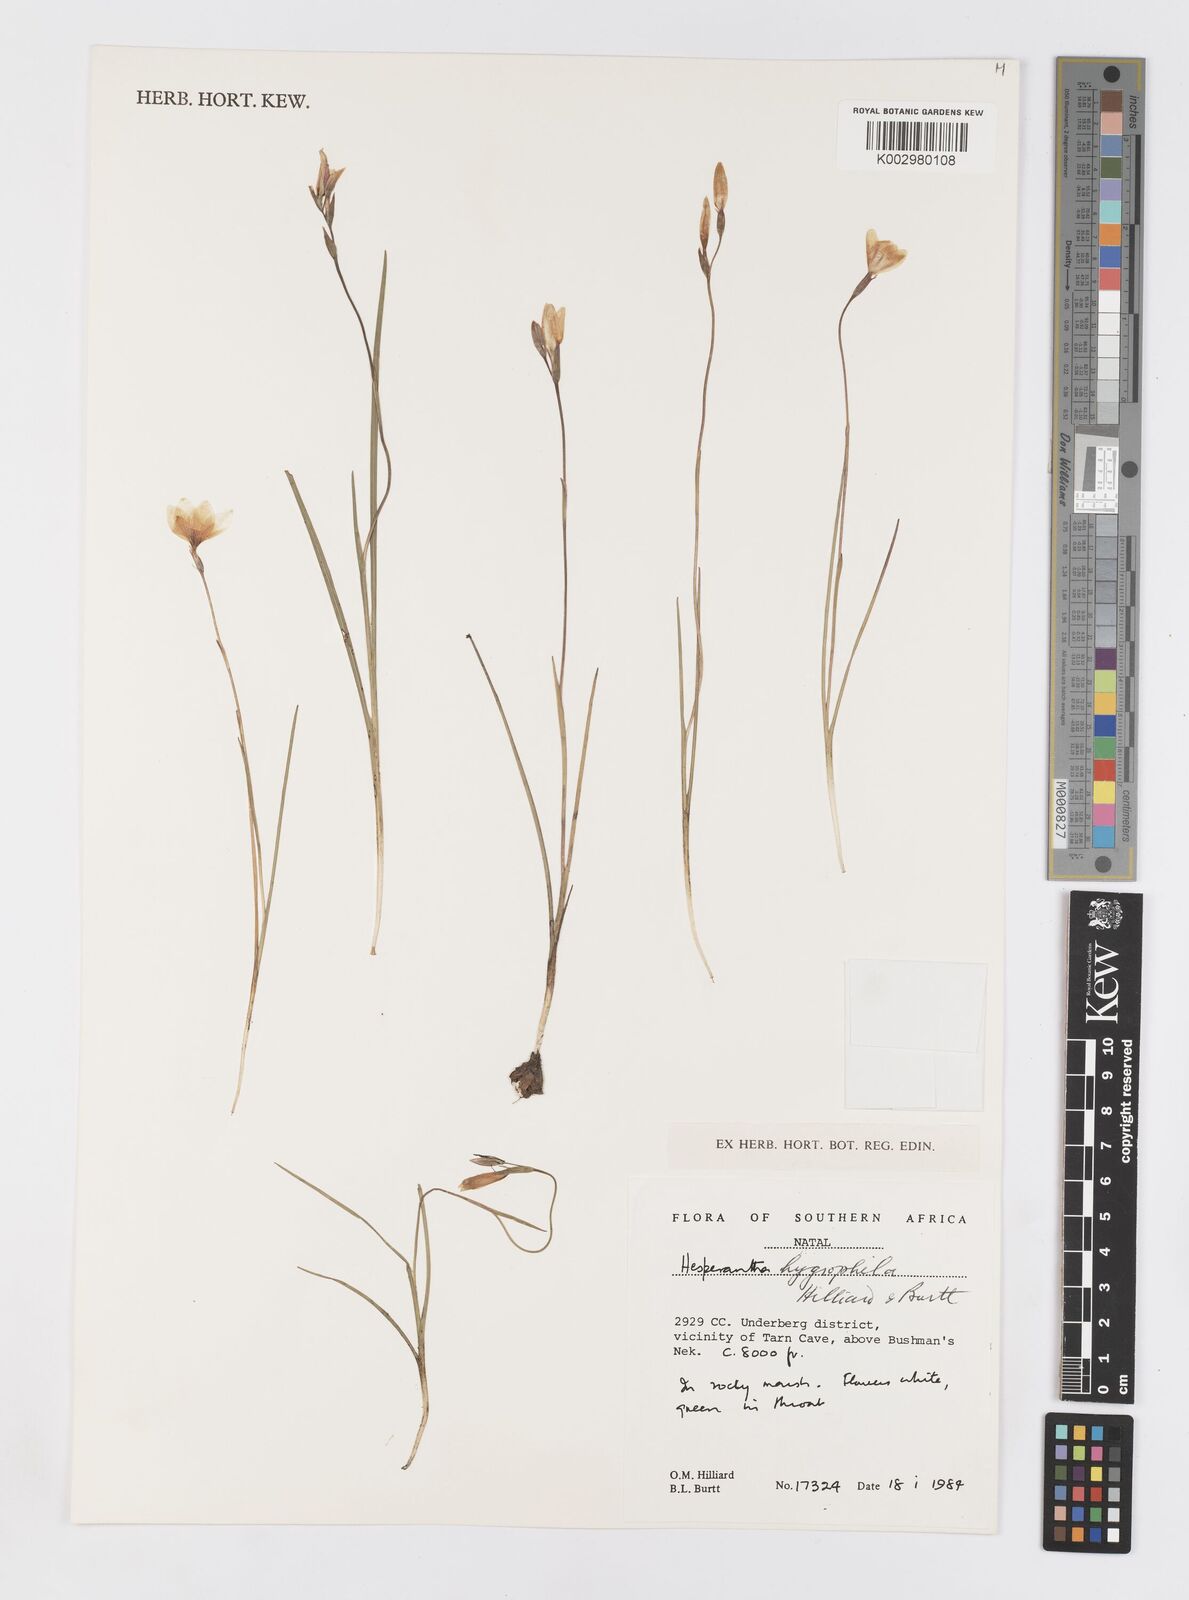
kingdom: Plantae
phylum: Tracheophyta
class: Liliopsida
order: Asparagales
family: Iridaceae
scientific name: Iridaceae
